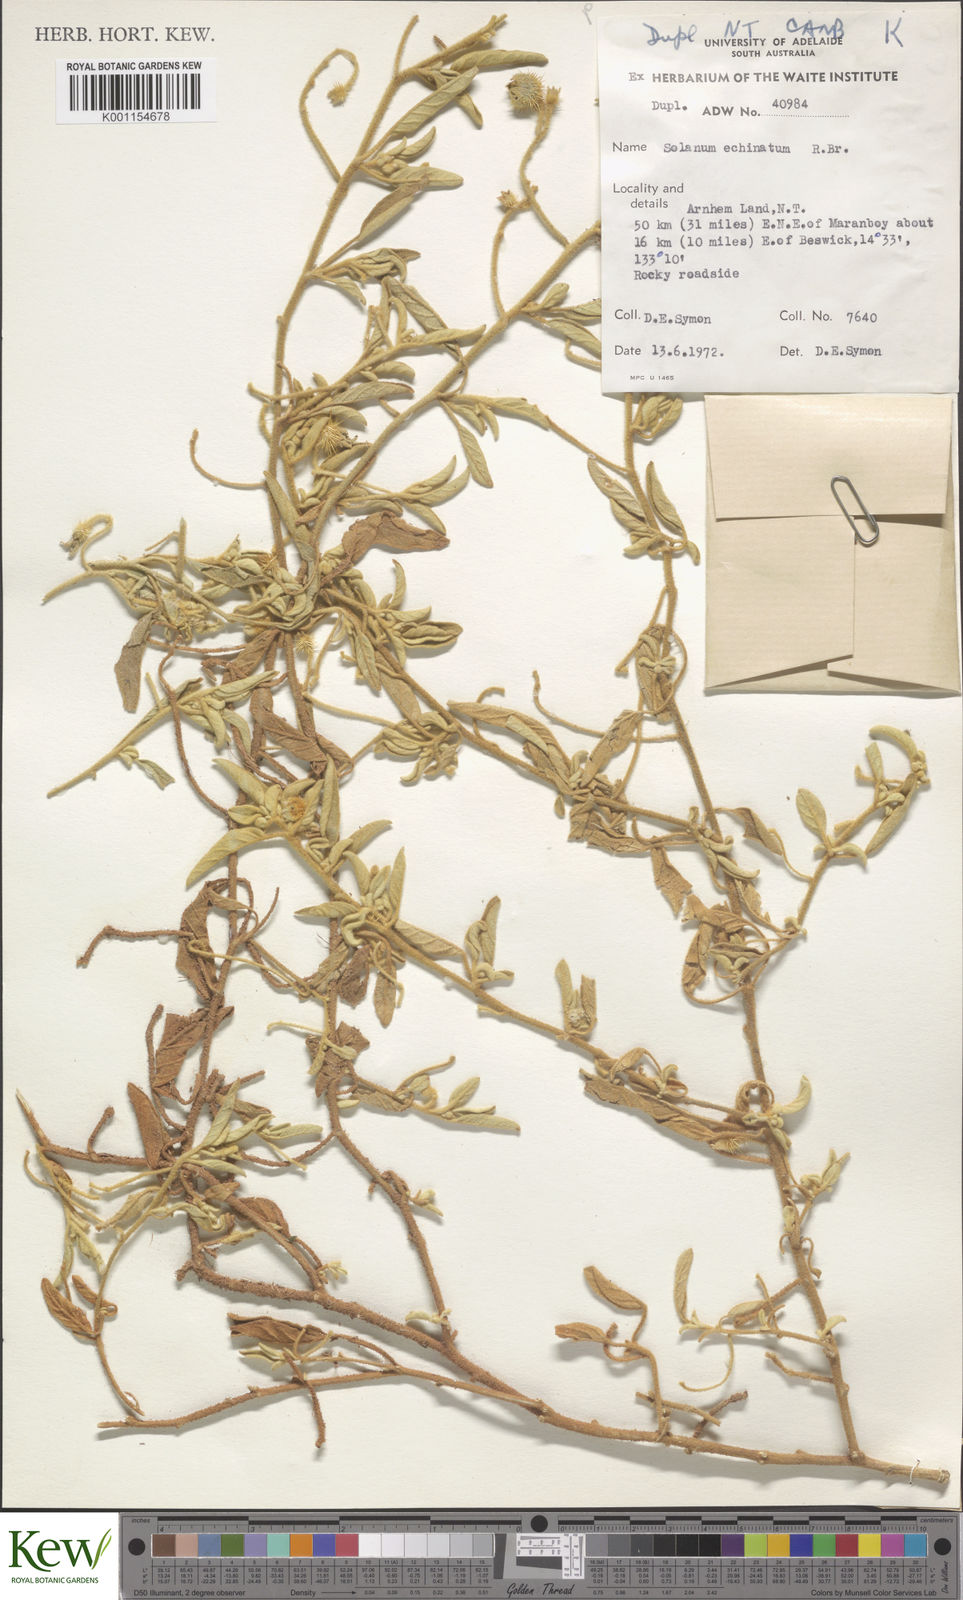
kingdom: Plantae
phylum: Tracheophyta
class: Magnoliopsida
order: Solanales
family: Solanaceae
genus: Solanum
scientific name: Solanum echinatum
